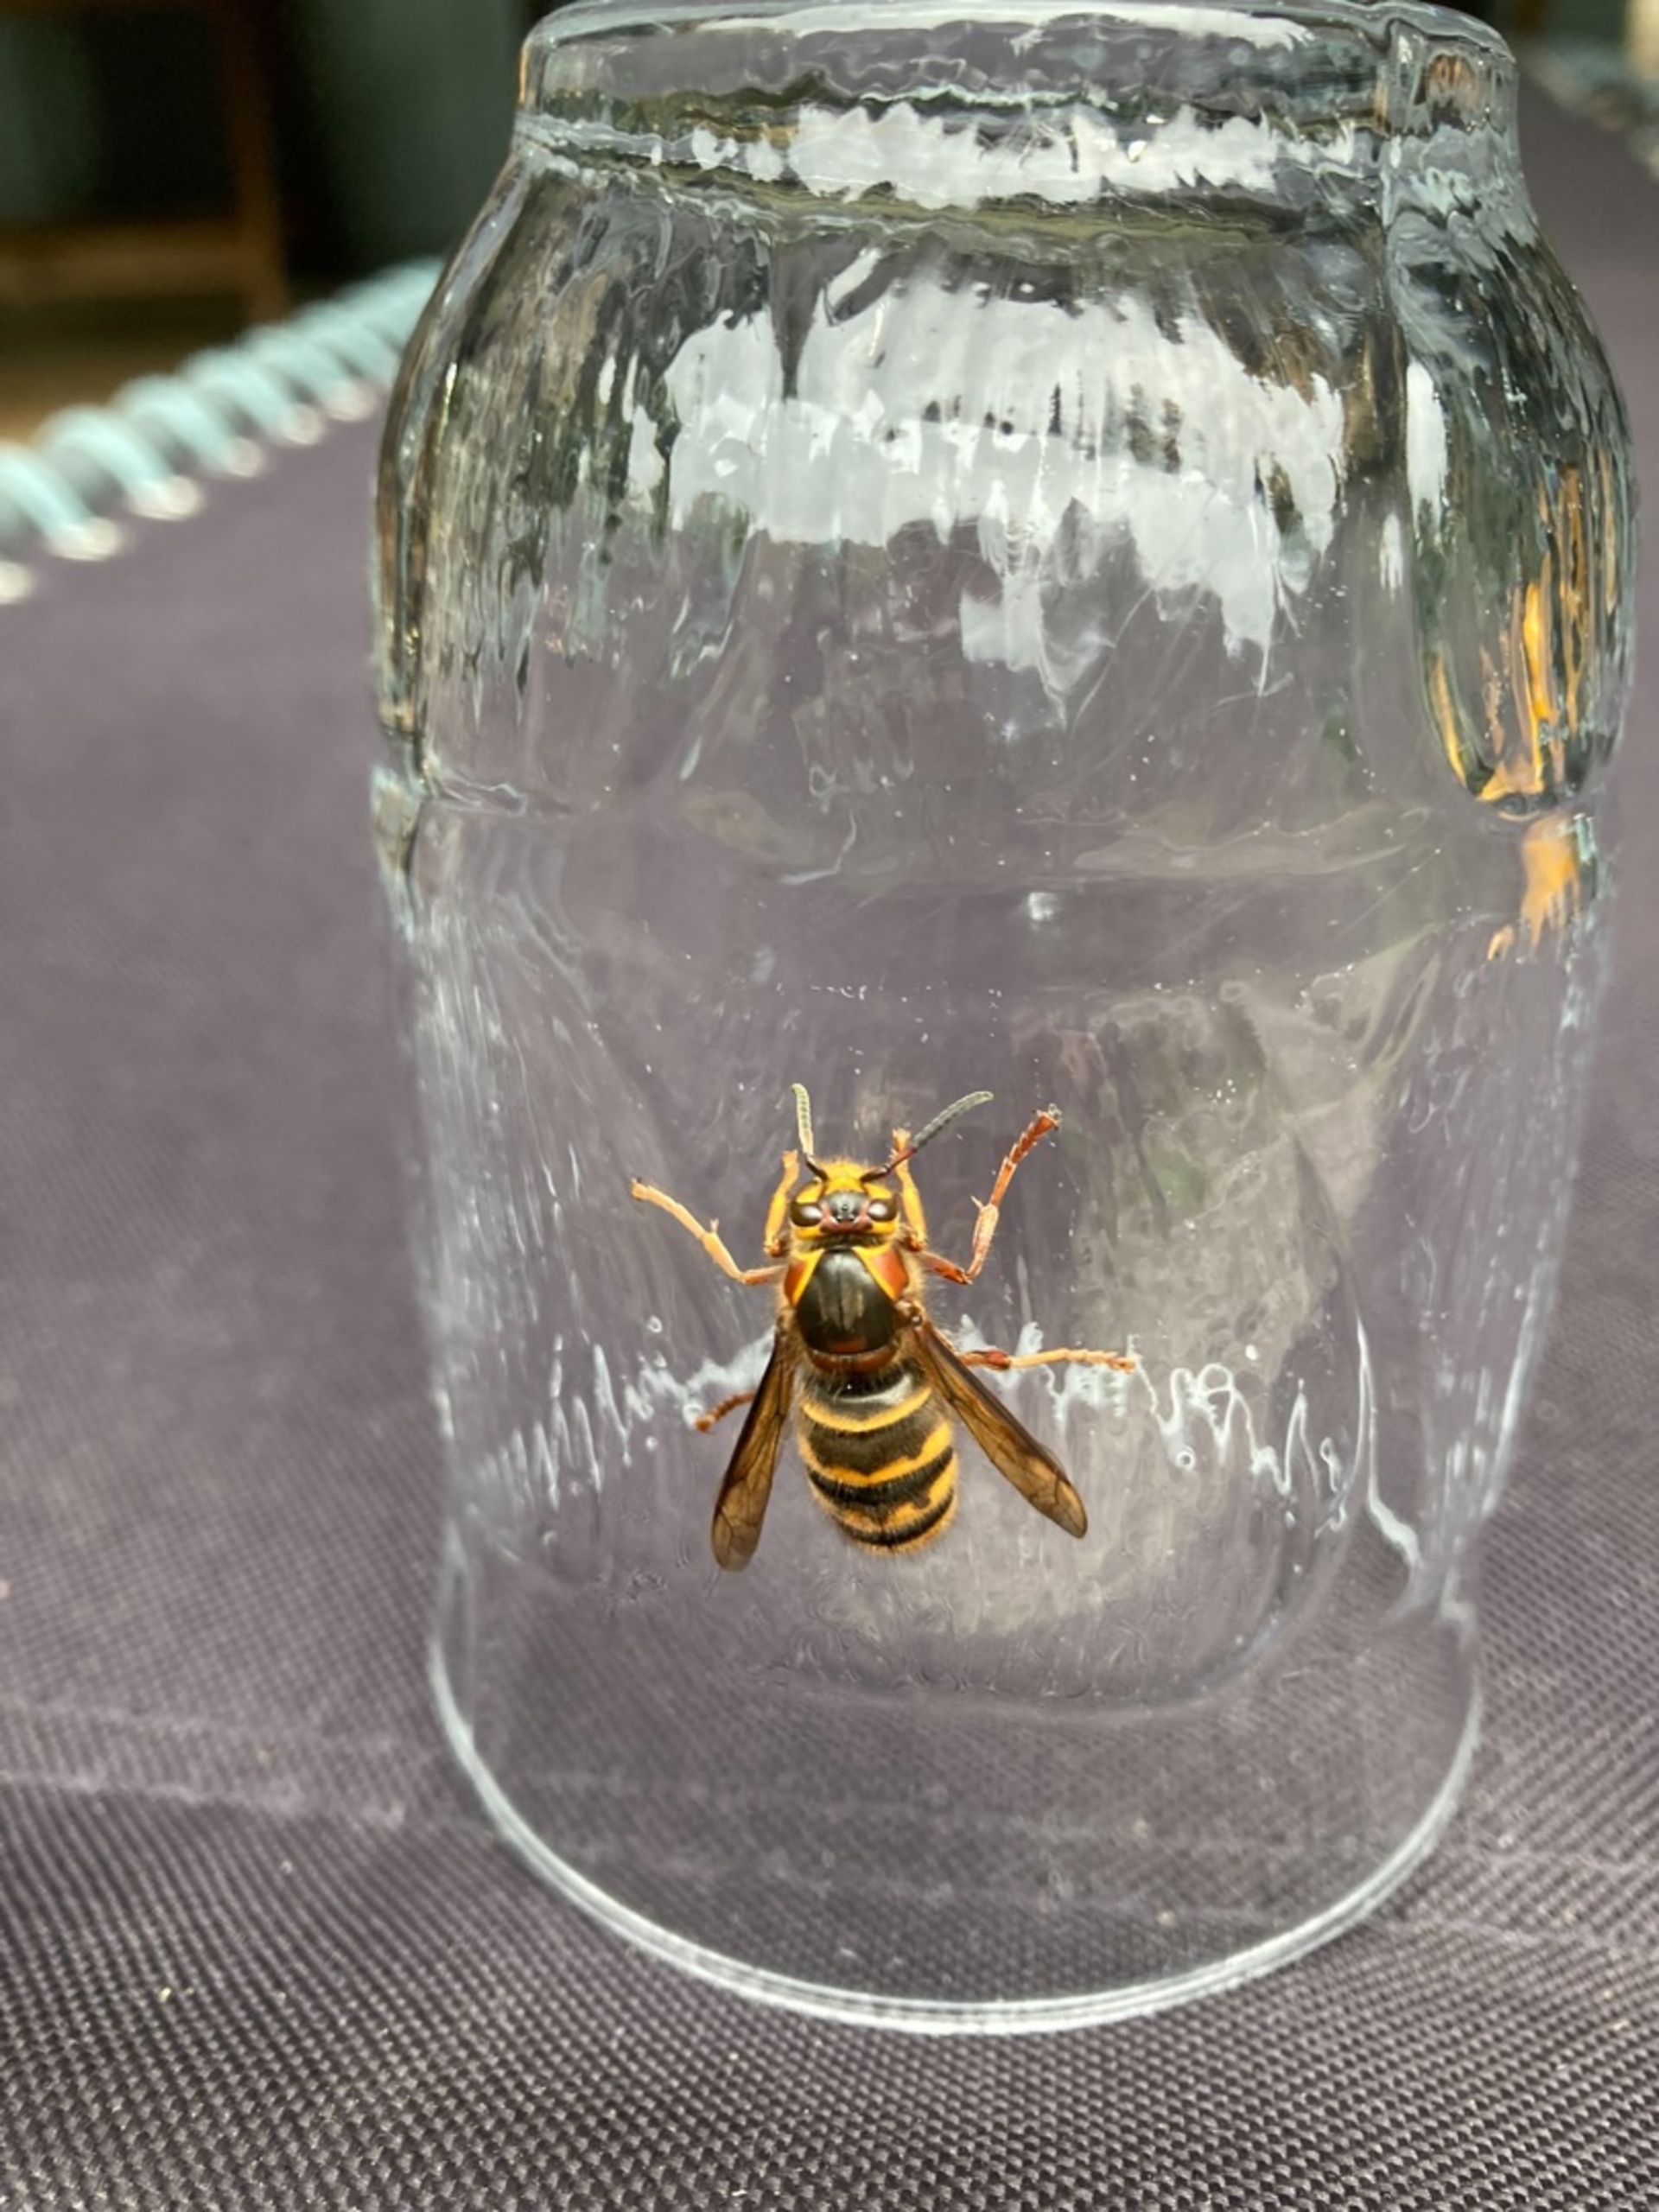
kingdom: Animalia
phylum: Arthropoda
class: Insecta
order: Hymenoptera
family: Vespidae
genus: Dolichovespula
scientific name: Dolichovespula omissa
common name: Skov-snyltegedehams
